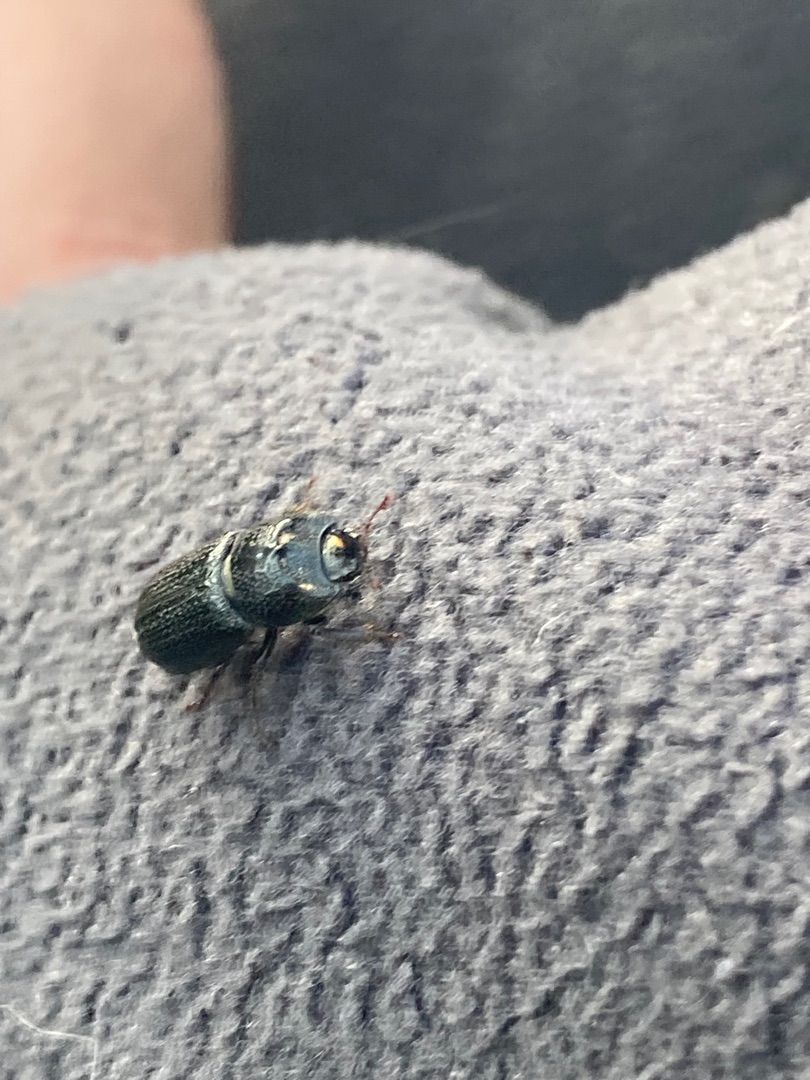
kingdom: Animalia
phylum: Arthropoda
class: Insecta
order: Coleoptera
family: Lucanidae
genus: Sinodendron
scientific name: Sinodendron cylindricum
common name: Valsehjort
